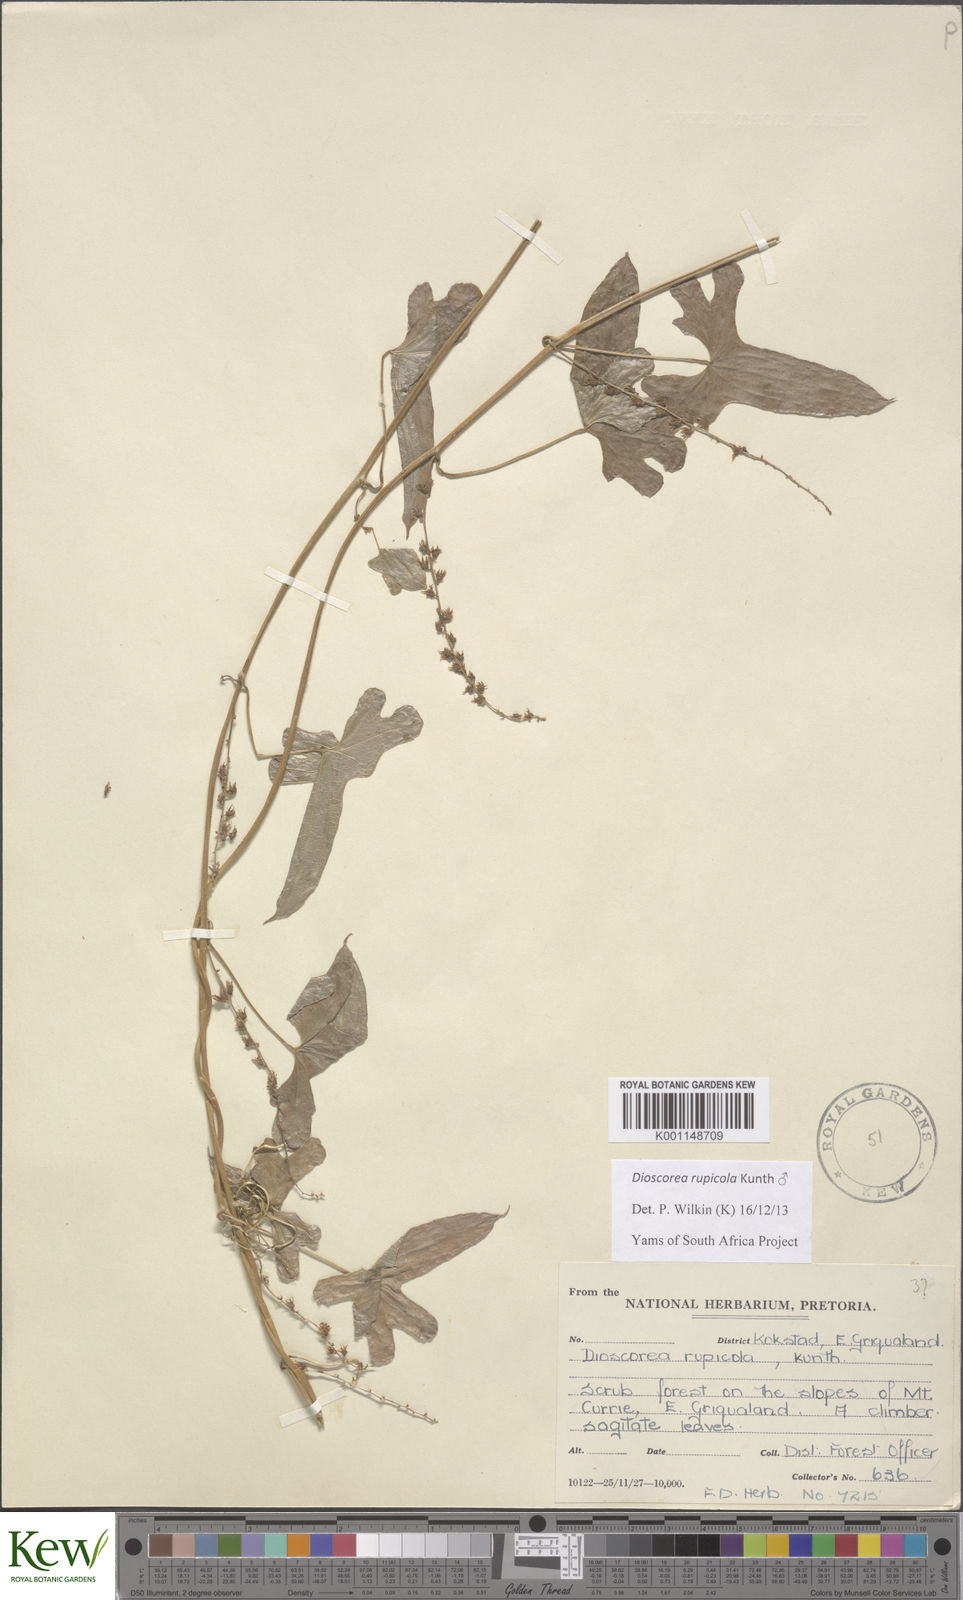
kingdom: Plantae
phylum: Tracheophyta
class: Liliopsida
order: Dioscoreales
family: Dioscoreaceae
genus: Dioscorea
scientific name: Dioscorea rupicola
